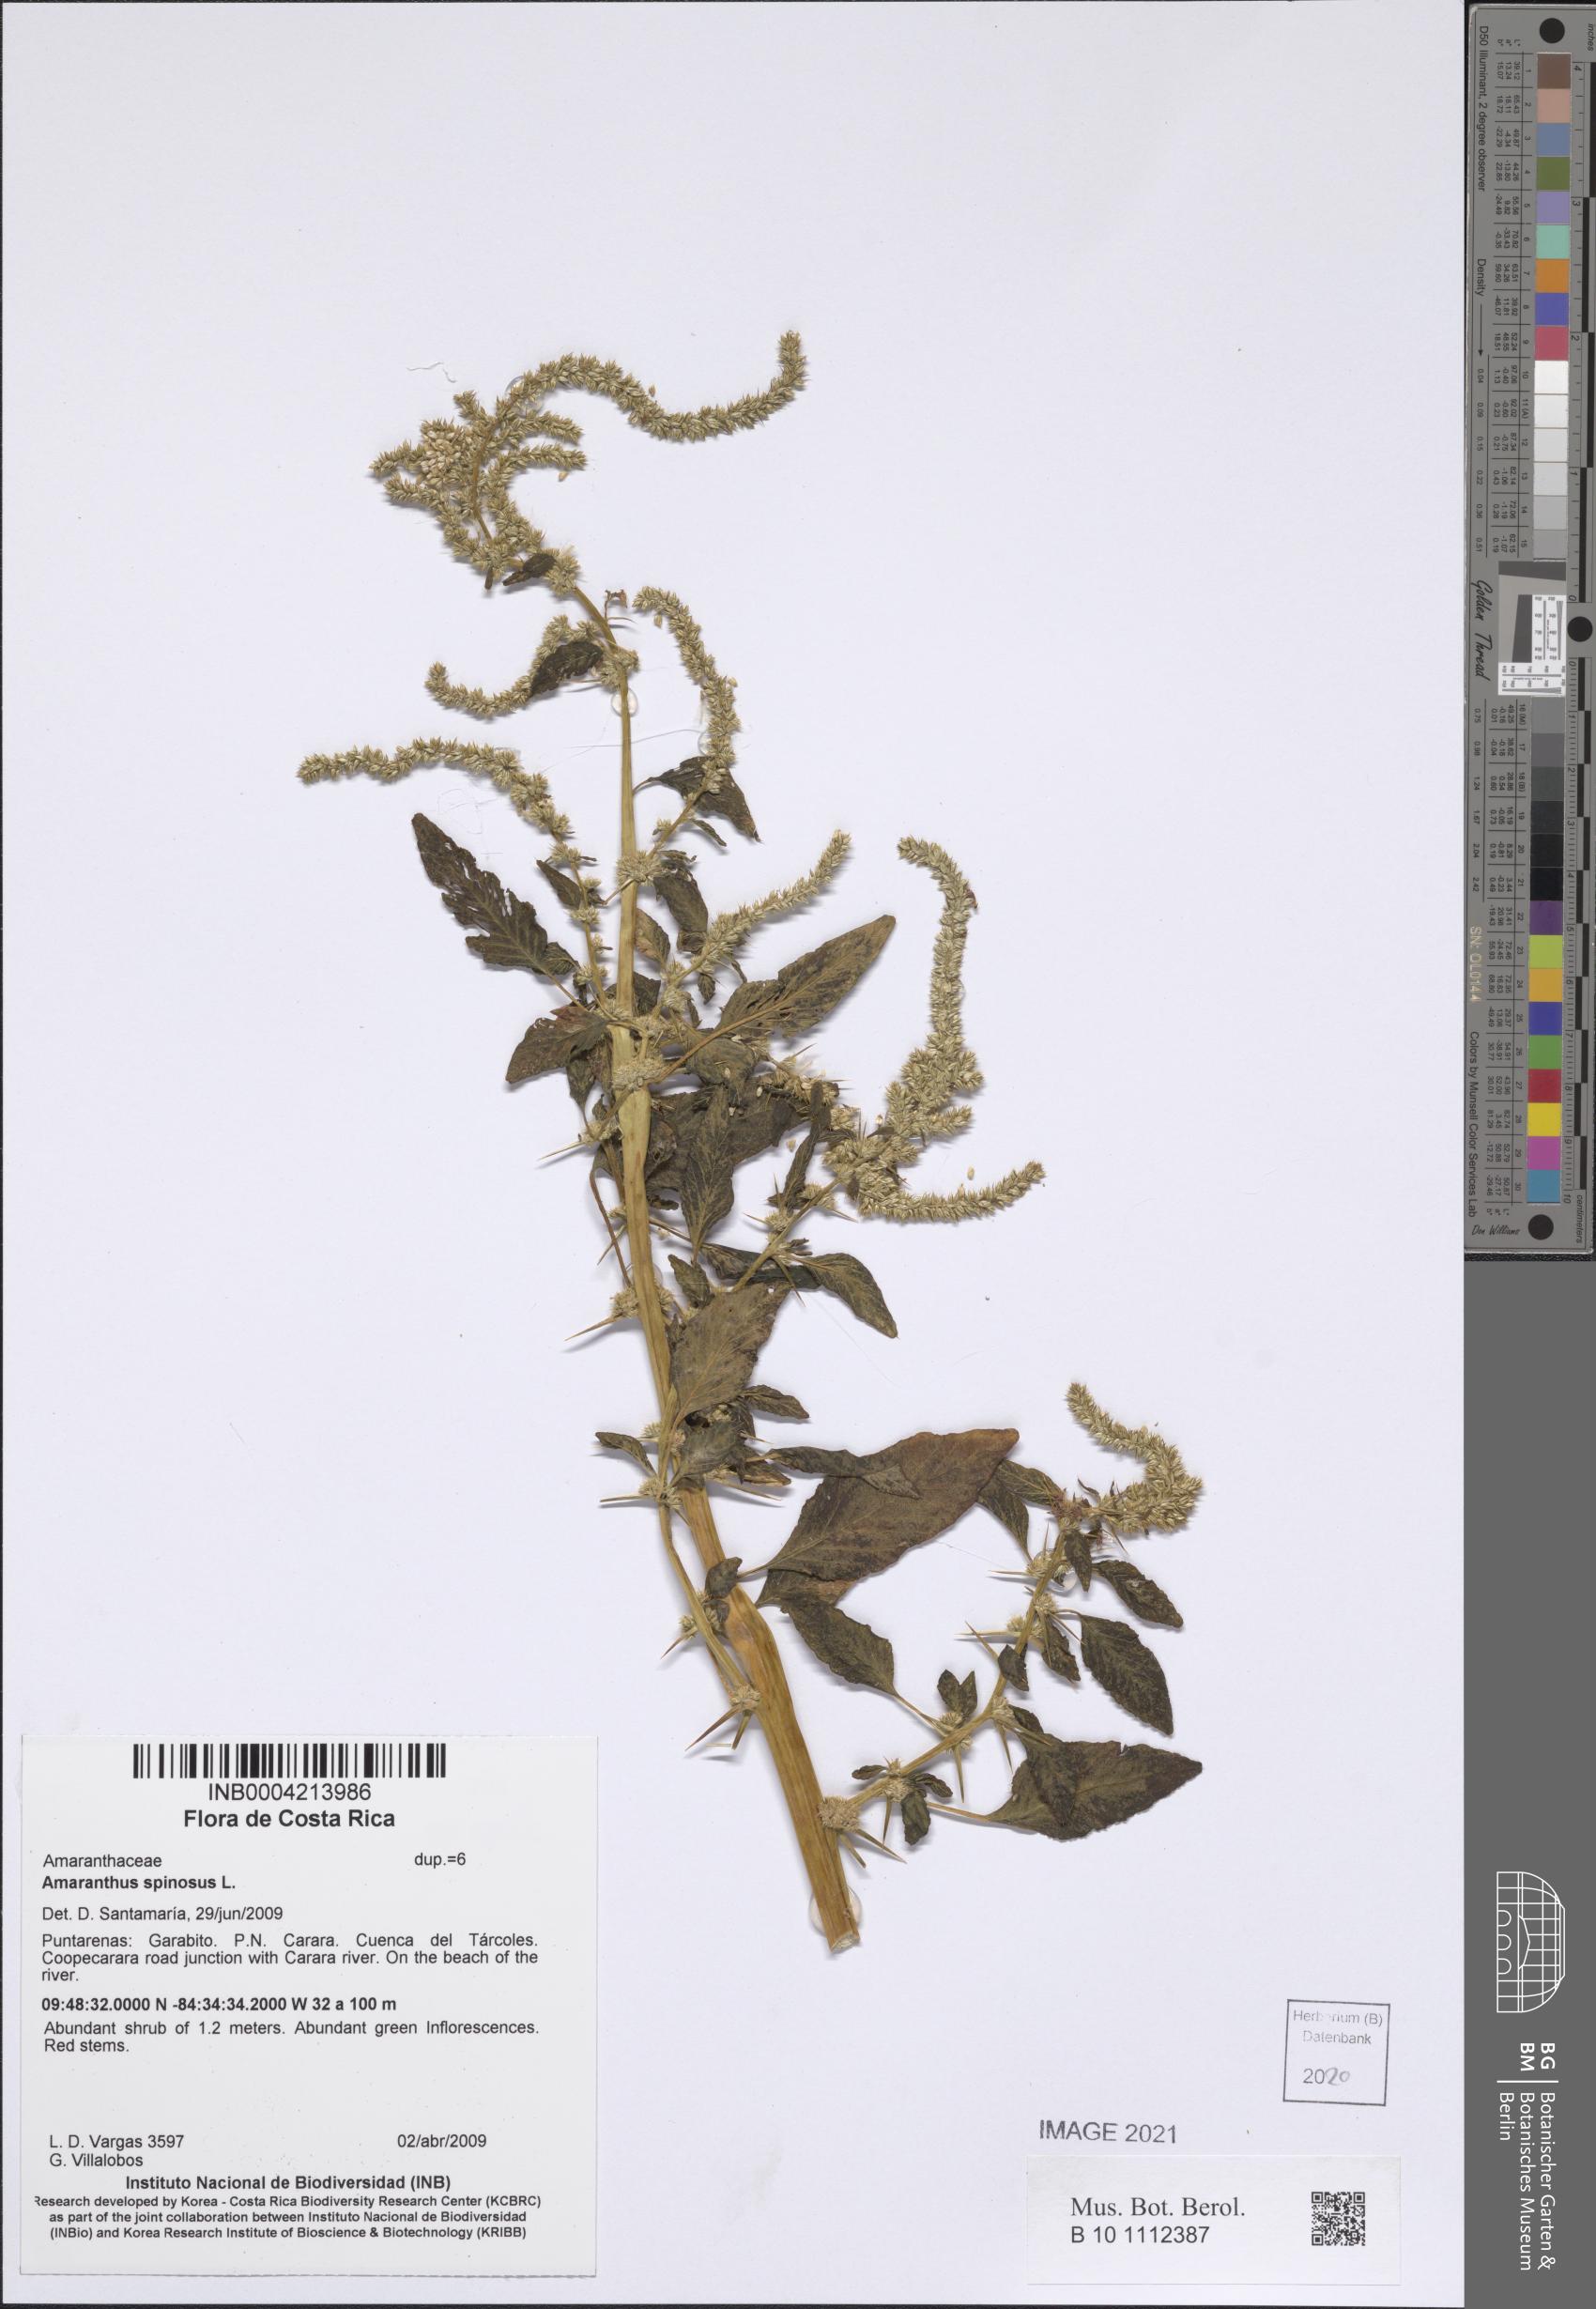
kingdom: Plantae
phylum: Tracheophyta
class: Magnoliopsida
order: Caryophyllales
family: Amaranthaceae
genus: Amaranthus
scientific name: Amaranthus spinosus
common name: Spiny amaranth
